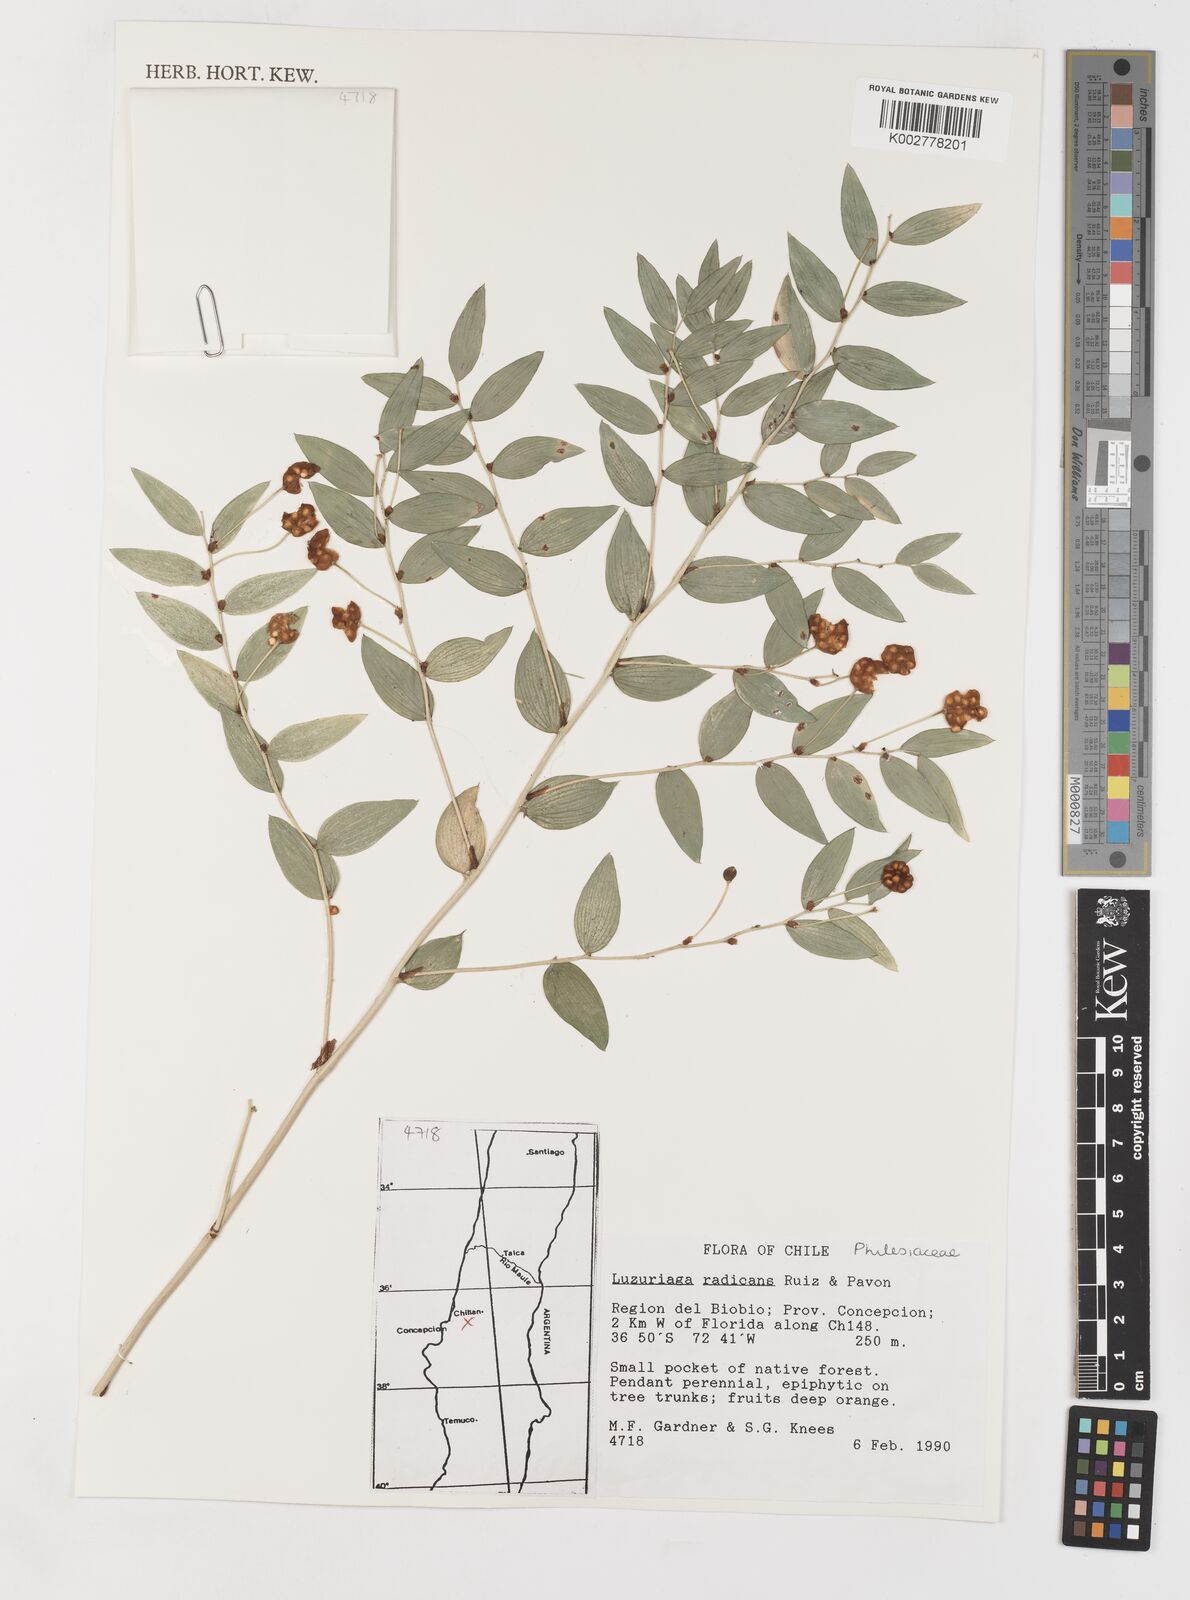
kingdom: Plantae
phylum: Tracheophyta
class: Liliopsida
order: Liliales
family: Alstroemeriaceae
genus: Luzuriaga
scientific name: Luzuriaga radicans
